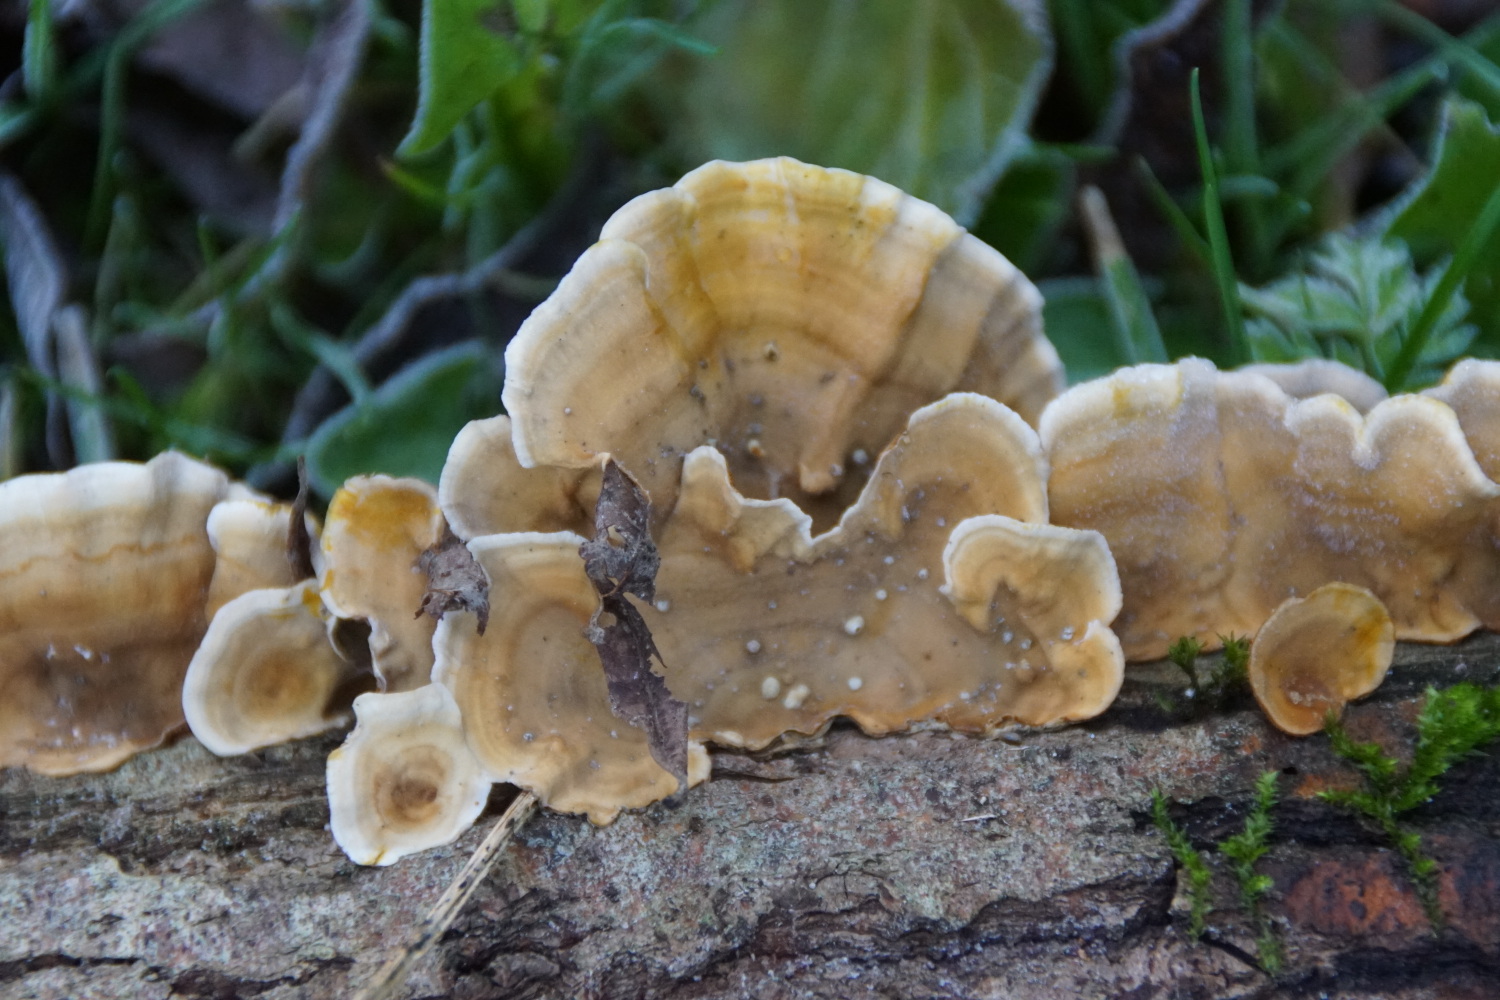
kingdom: Fungi
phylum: Basidiomycota
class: Agaricomycetes
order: Russulales
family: Stereaceae
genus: Stereum
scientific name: Stereum subtomentosum
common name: smuk lædersvamp
